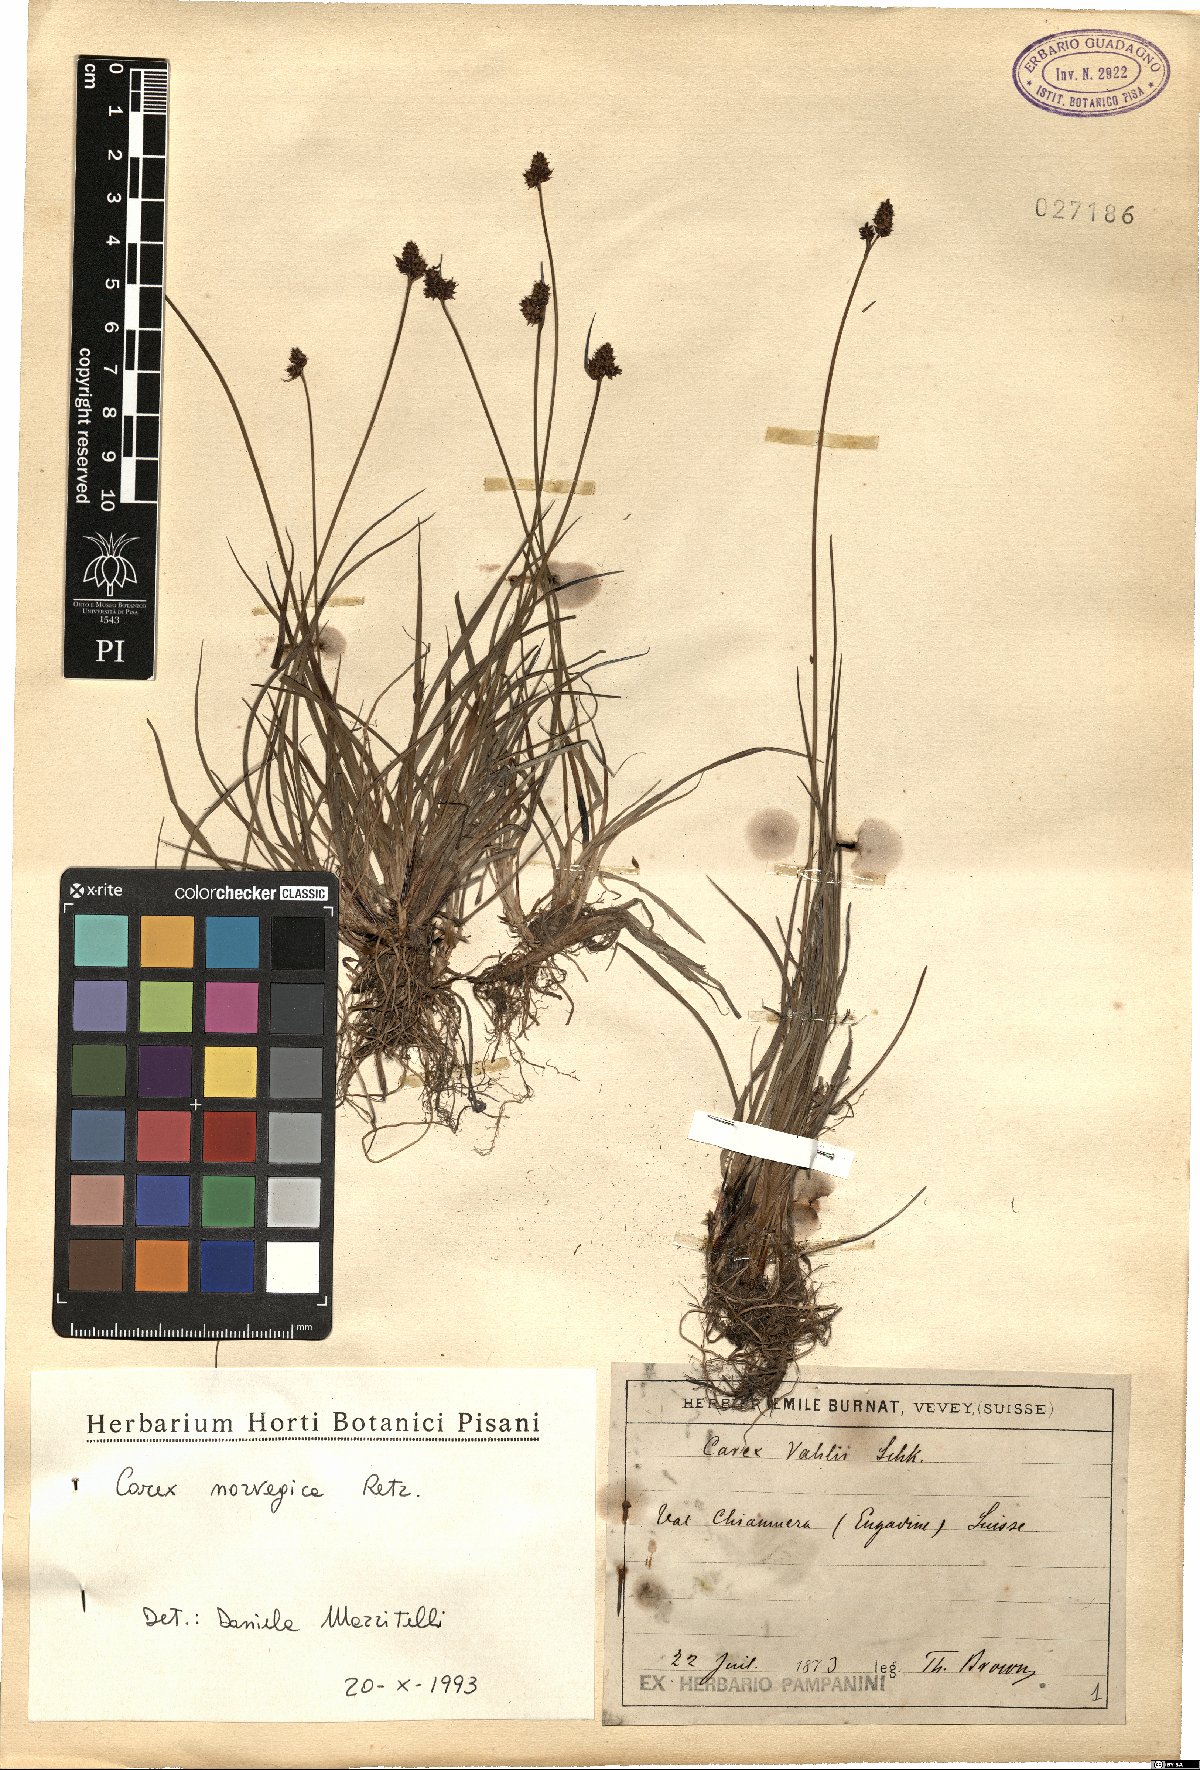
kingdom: Plantae
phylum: Tracheophyta
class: Liliopsida
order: Poales
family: Cyperaceae
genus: Carex
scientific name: Carex norvegica
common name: Close-headed alpine-sedge
